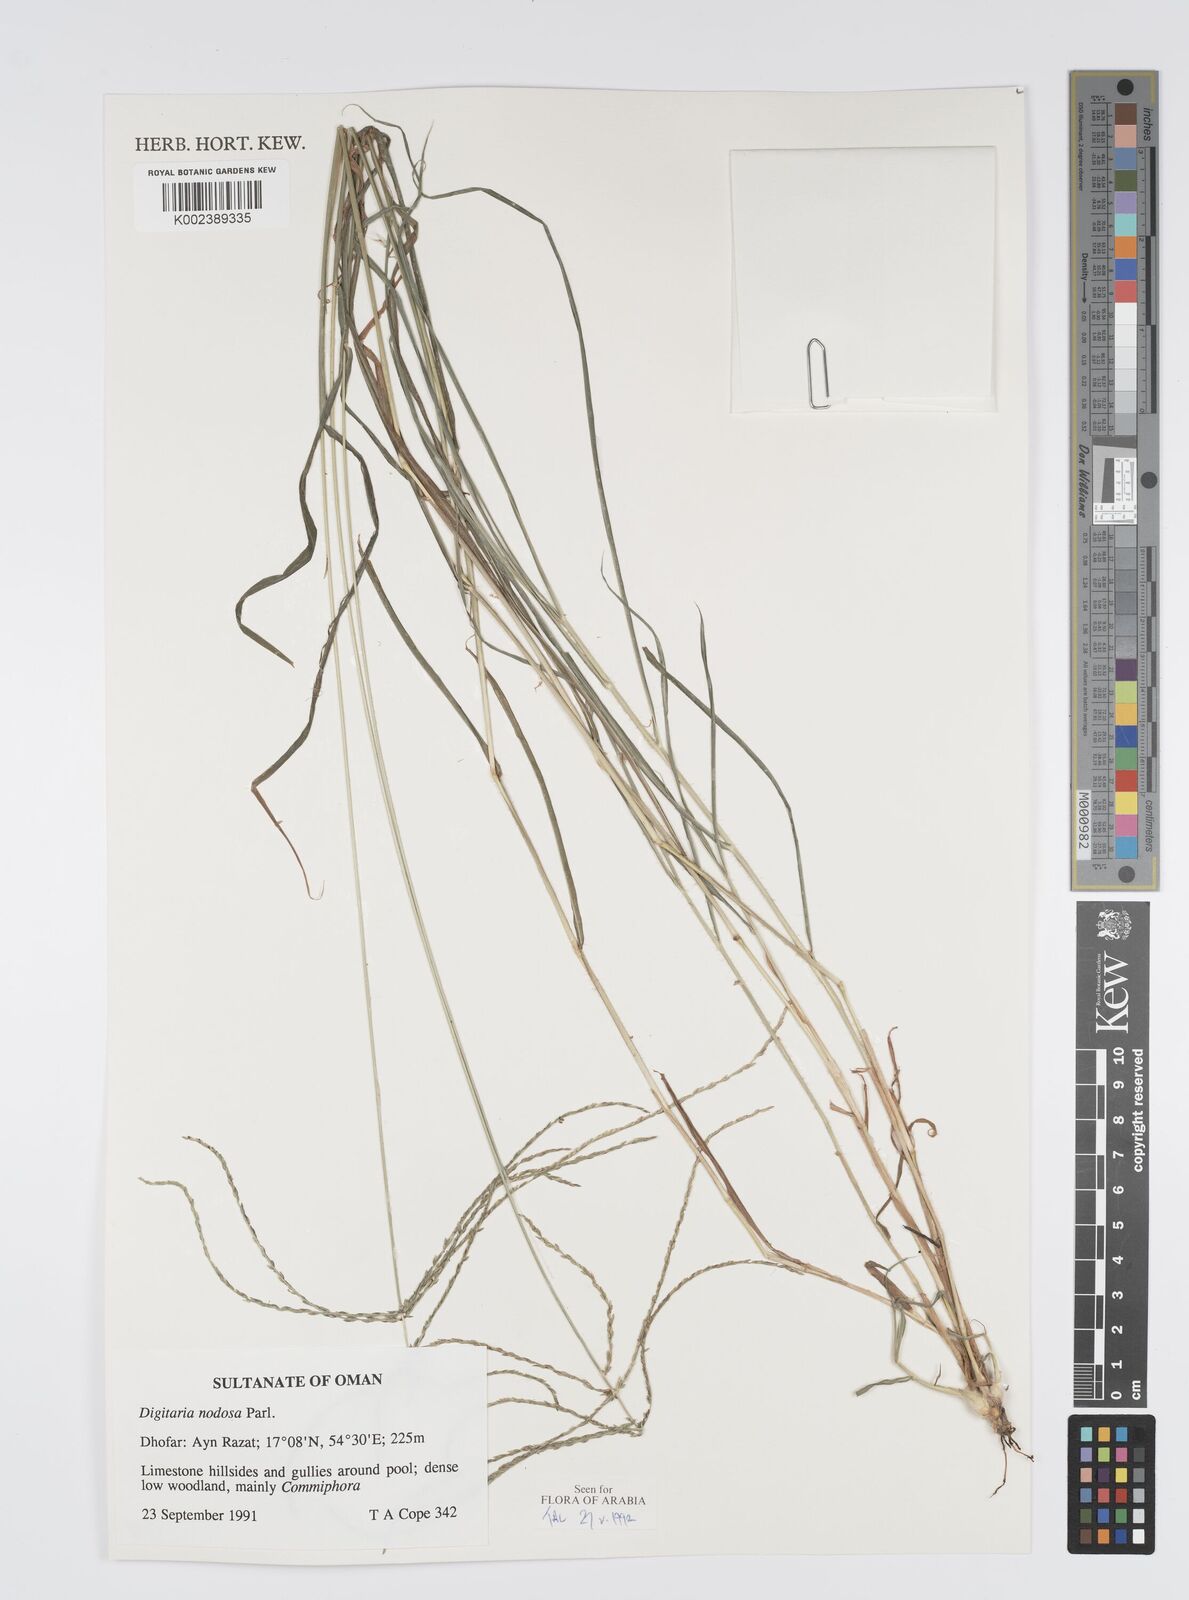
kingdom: Plantae
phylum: Tracheophyta
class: Liliopsida
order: Poales
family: Poaceae
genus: Digitaria
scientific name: Digitaria nodosa
